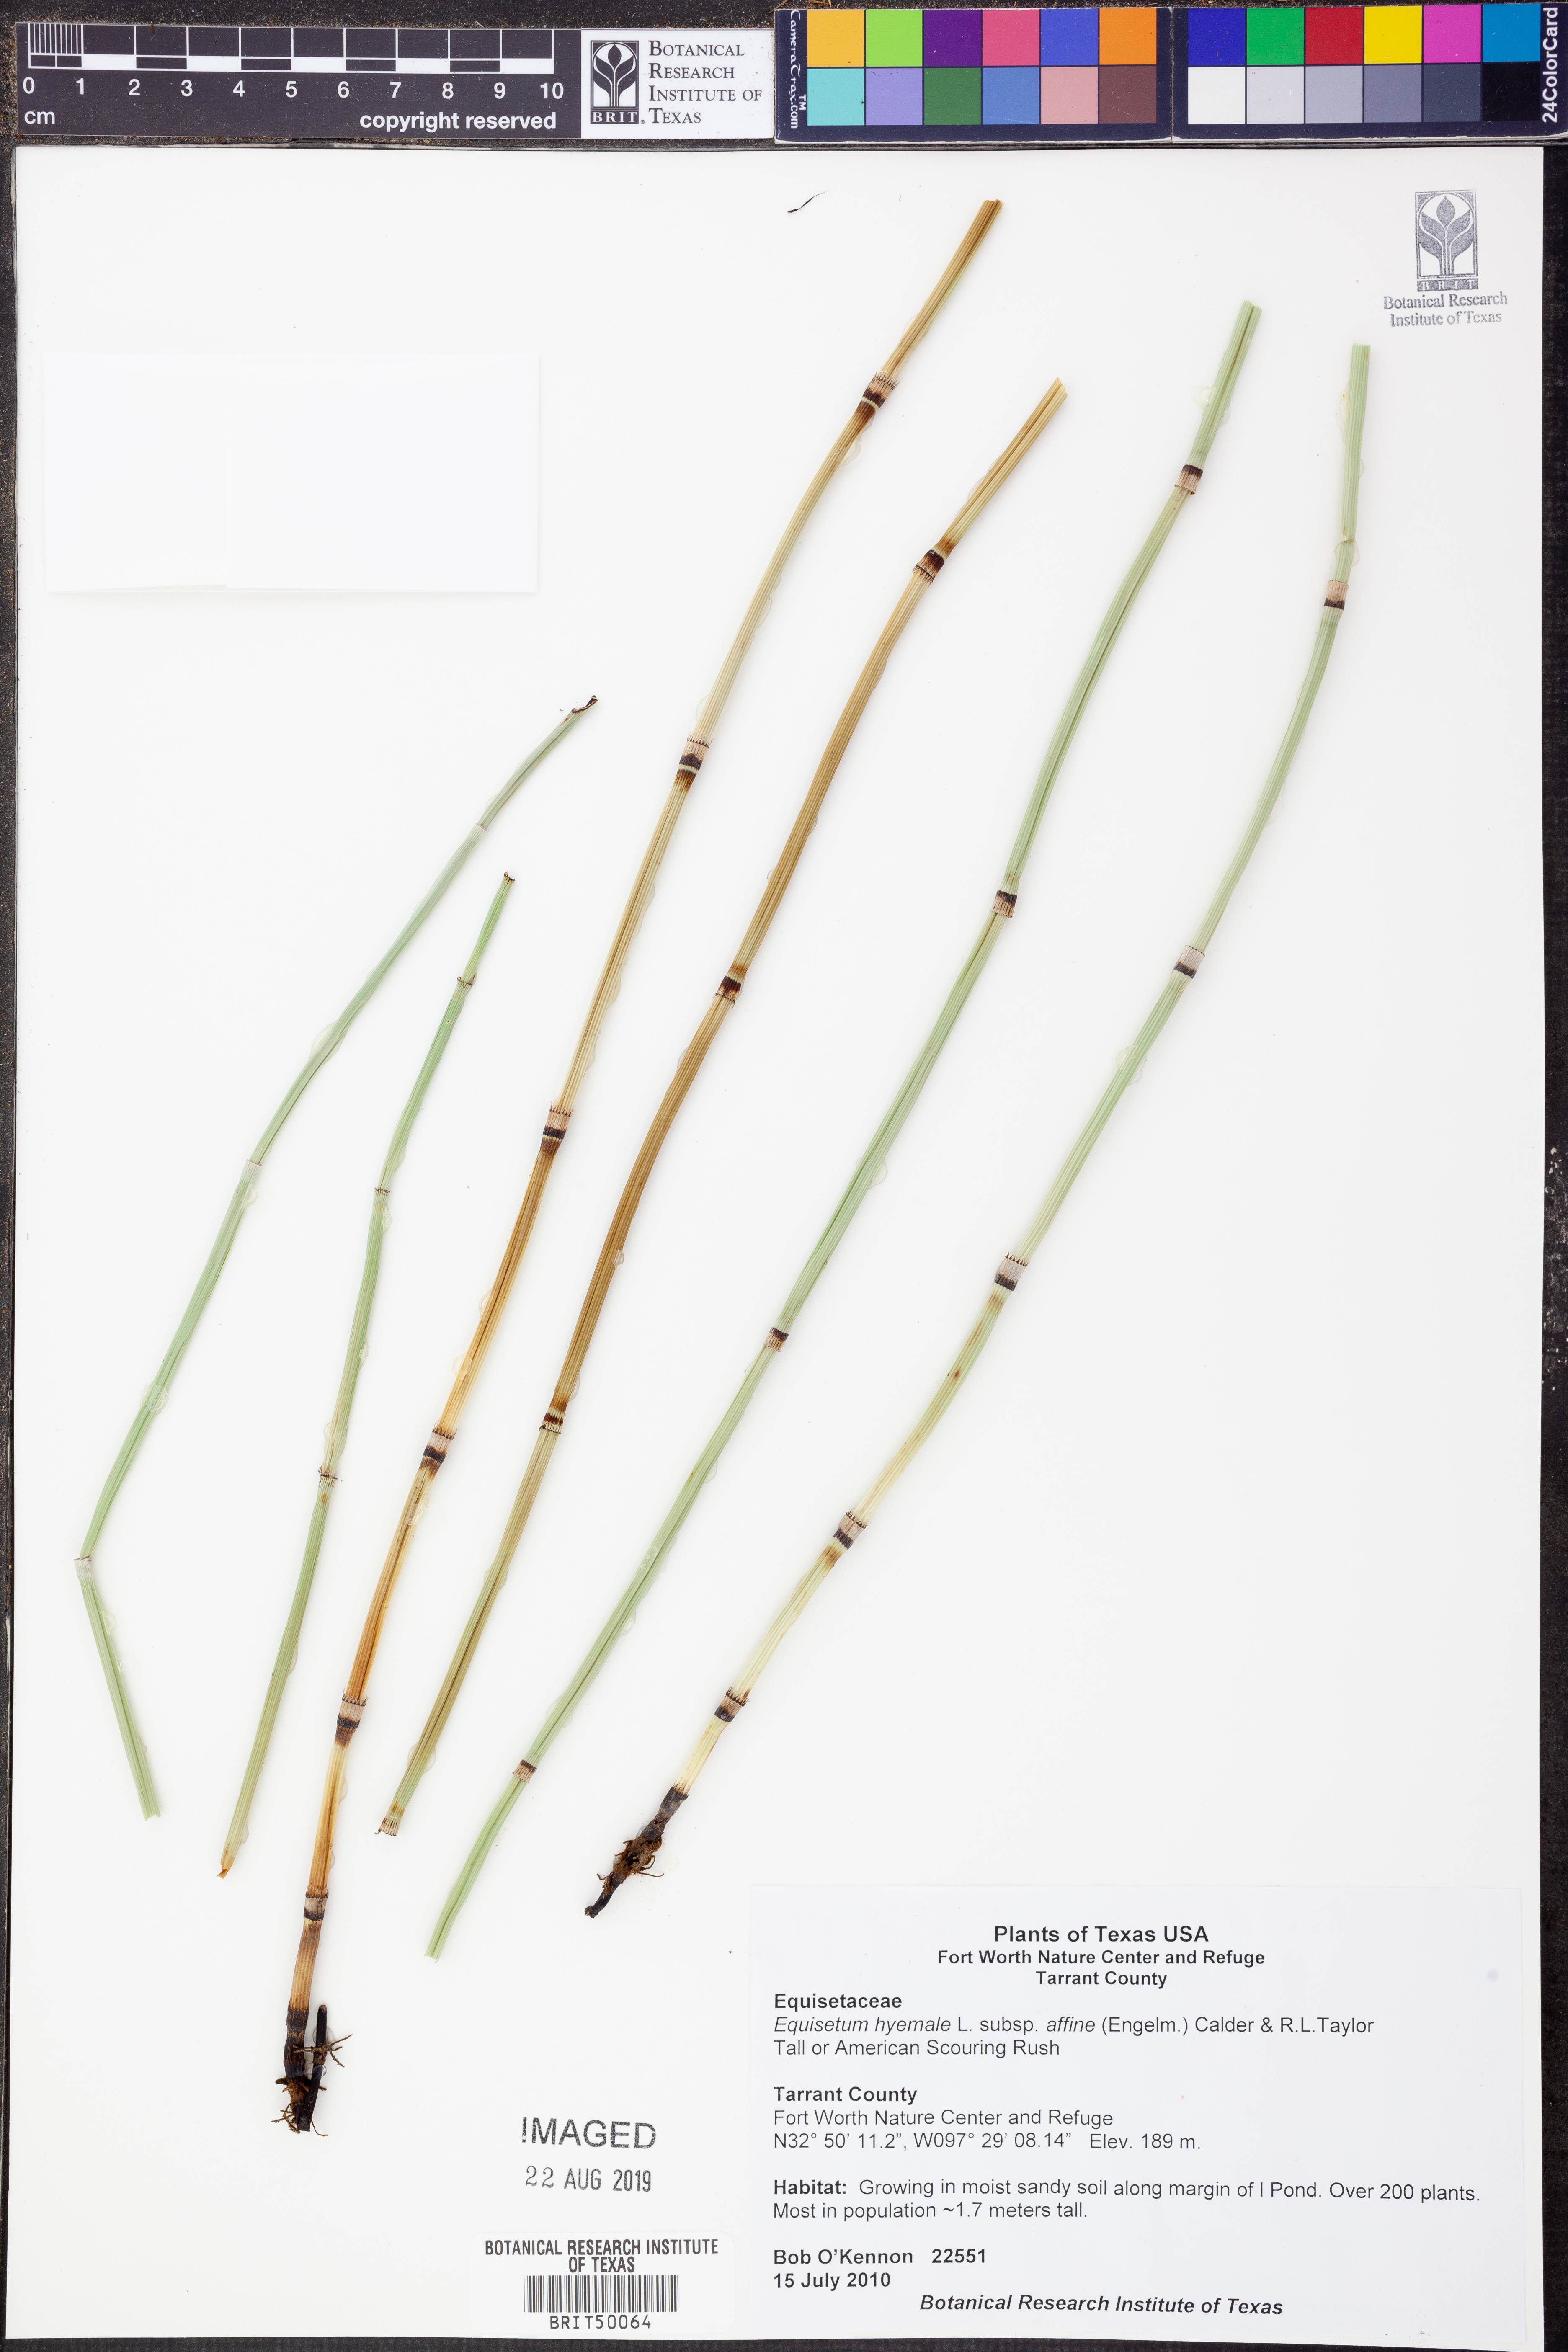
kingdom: Plantae
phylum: Tracheophyta
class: Polypodiopsida
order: Equisetales
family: Equisetaceae
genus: Equisetum
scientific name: Equisetum praealtum
